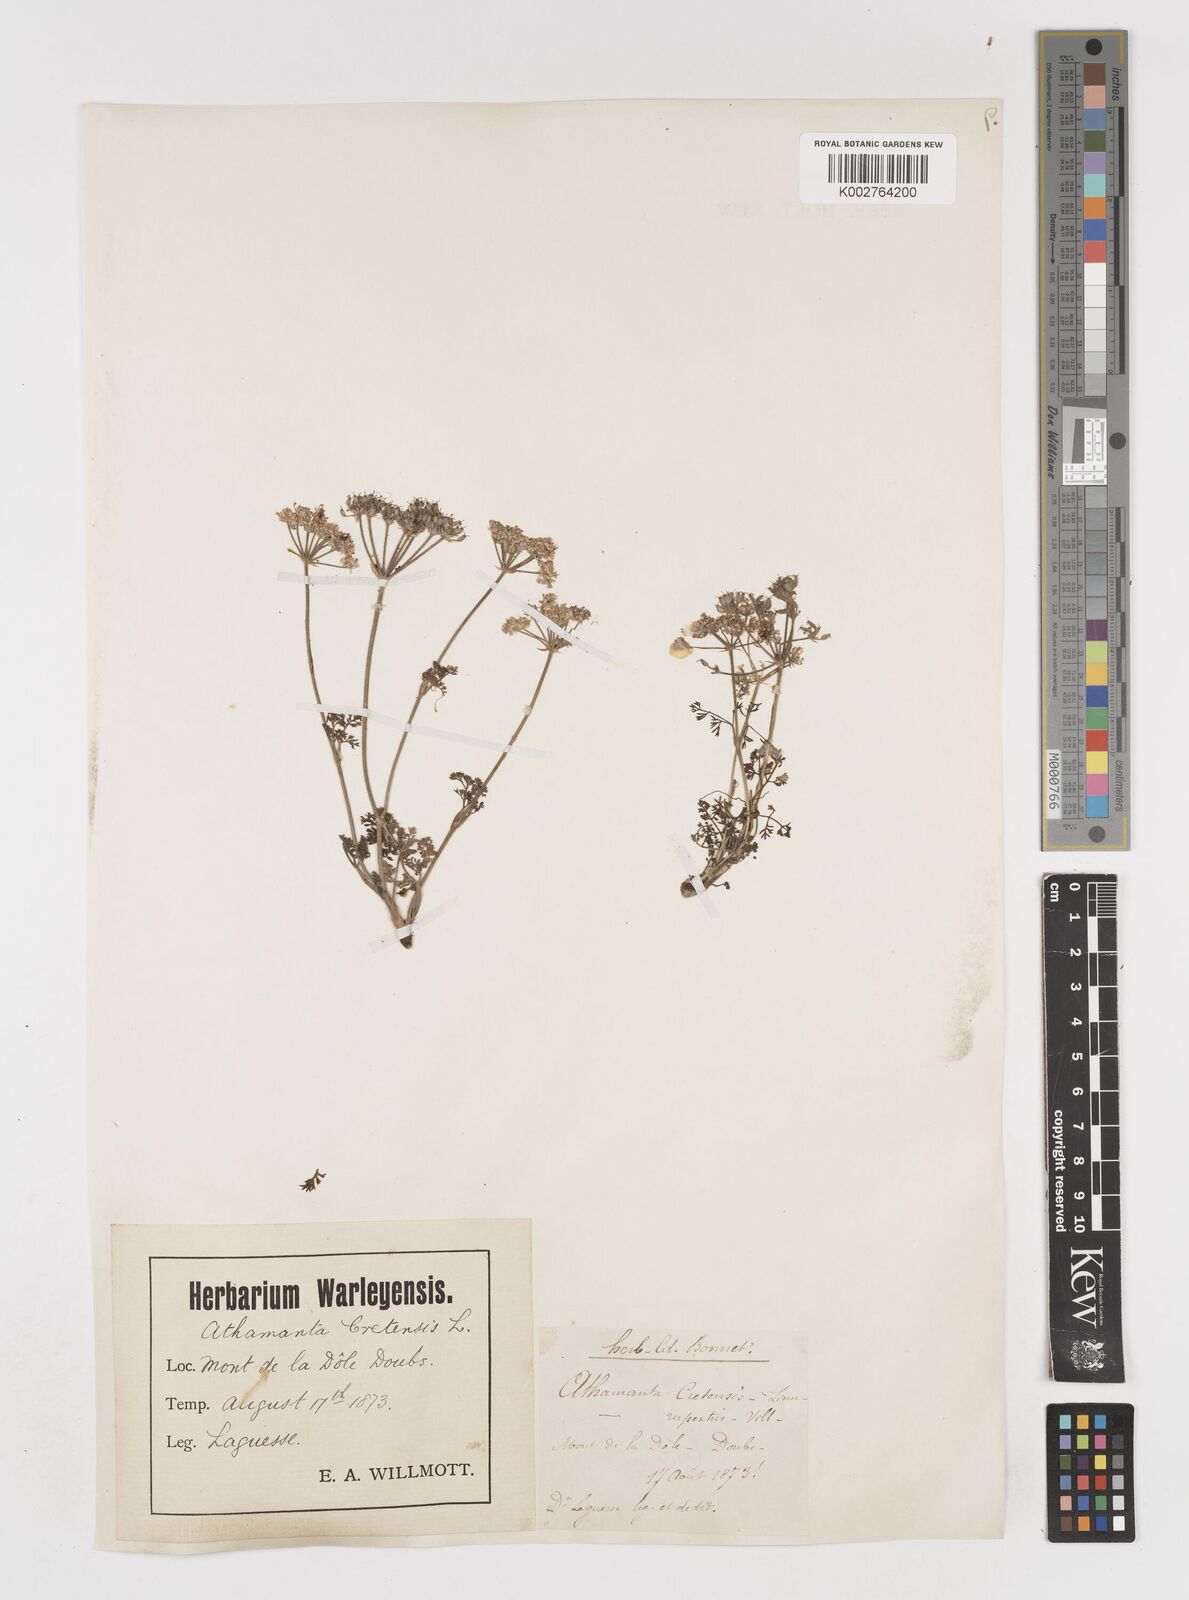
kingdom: Plantae
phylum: Tracheophyta
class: Magnoliopsida
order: Apiales
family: Apiaceae
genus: Athamanta
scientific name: Athamanta cretensis
